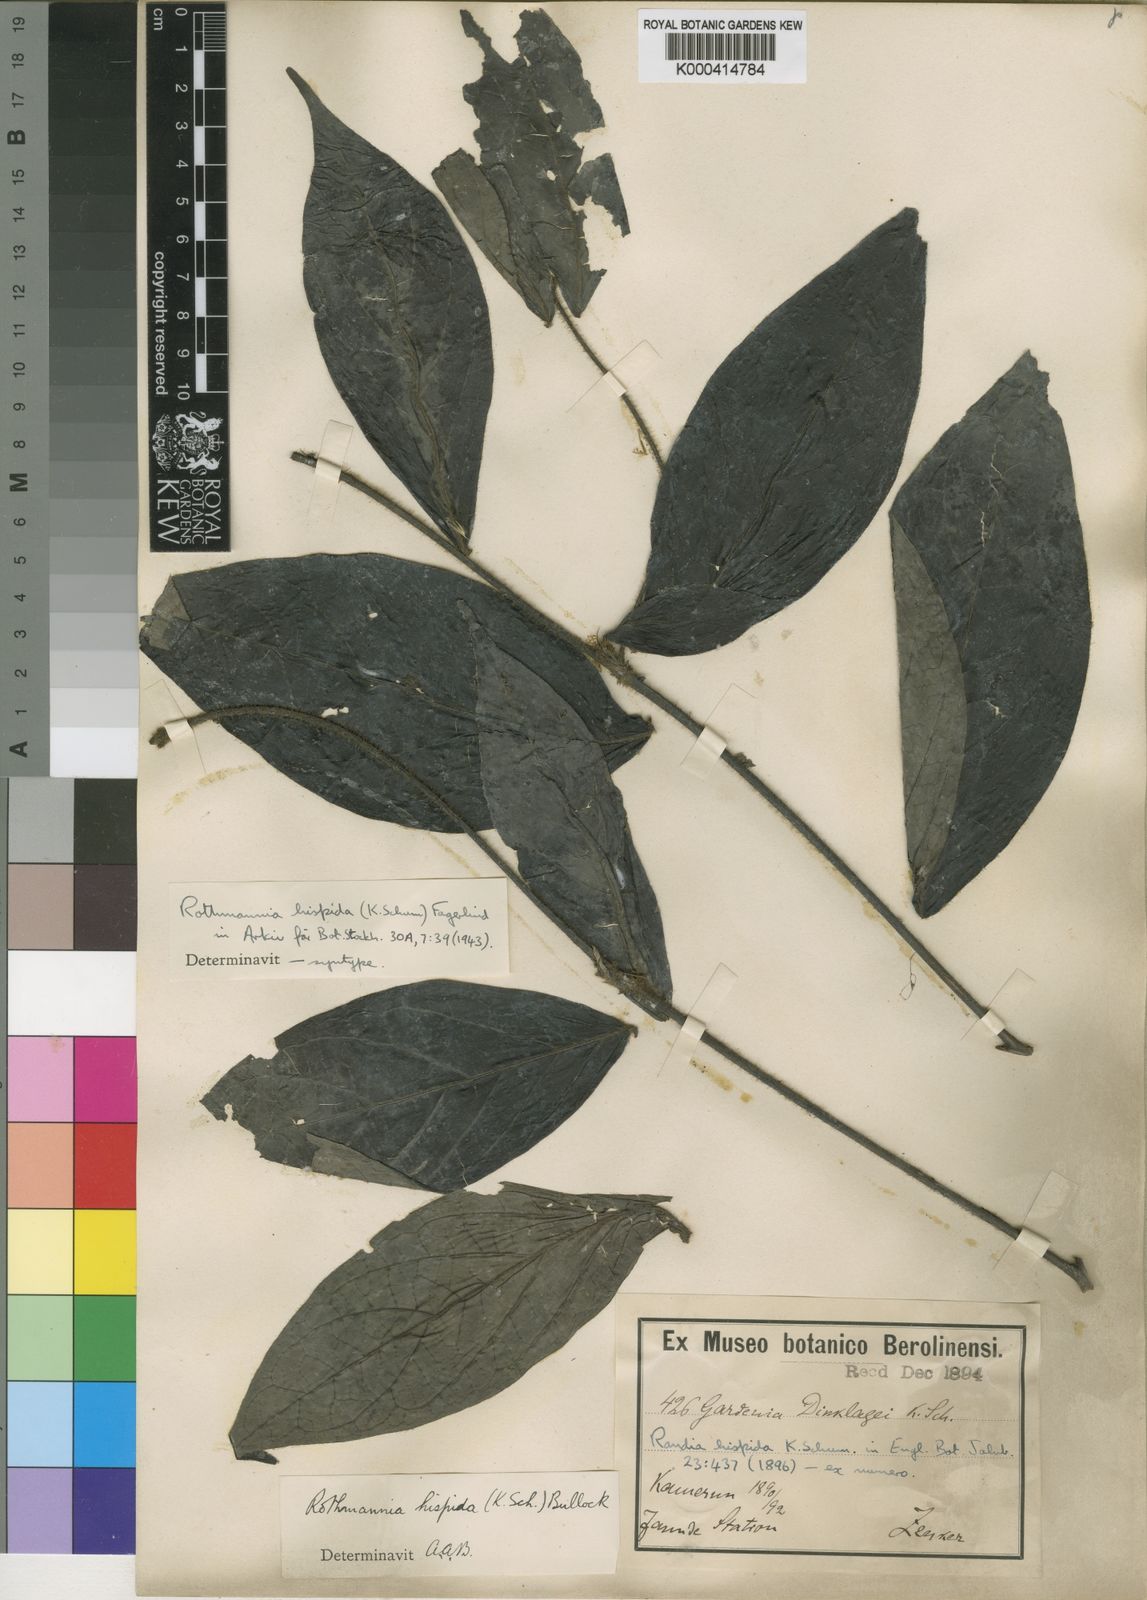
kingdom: Plantae
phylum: Tracheophyta
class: Magnoliopsida
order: Gentianales
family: Rubiaceae
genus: Rothmannia
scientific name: Rothmannia hispida
